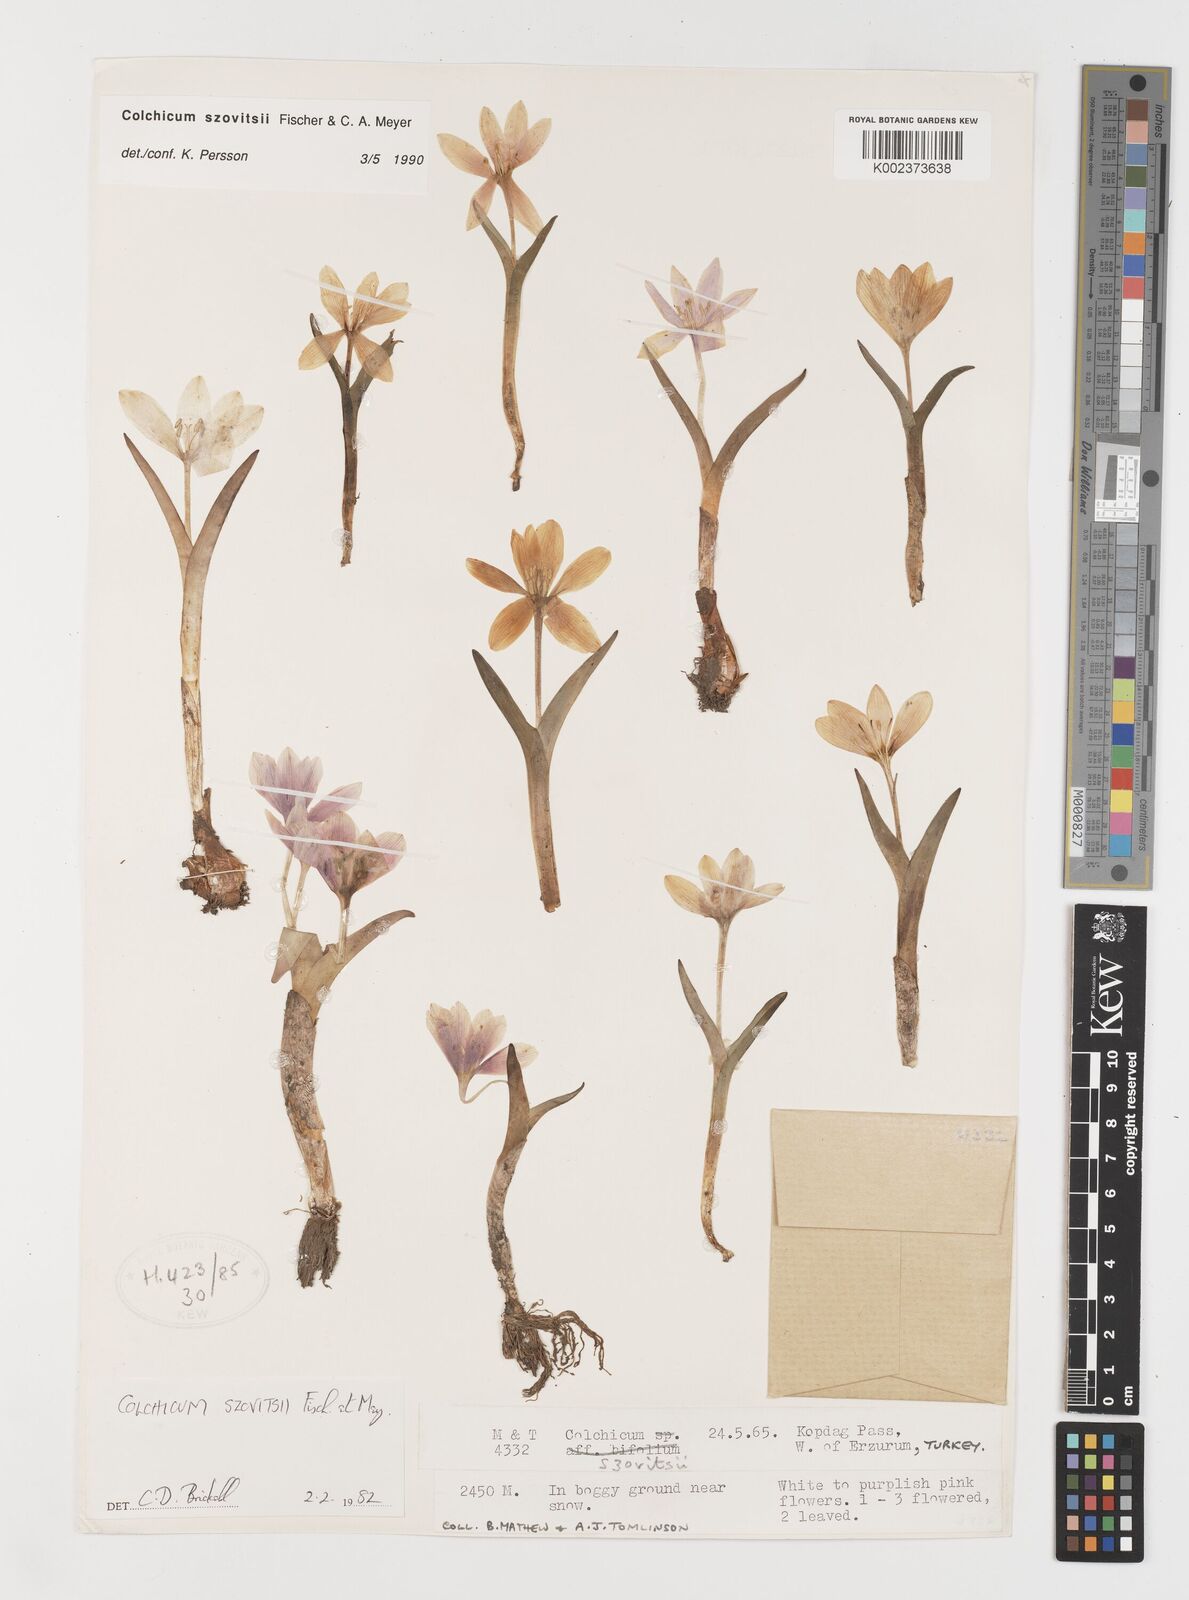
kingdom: Plantae
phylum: Tracheophyta
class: Liliopsida
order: Liliales
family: Colchicaceae
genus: Colchicum
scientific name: Colchicum szovitsii
